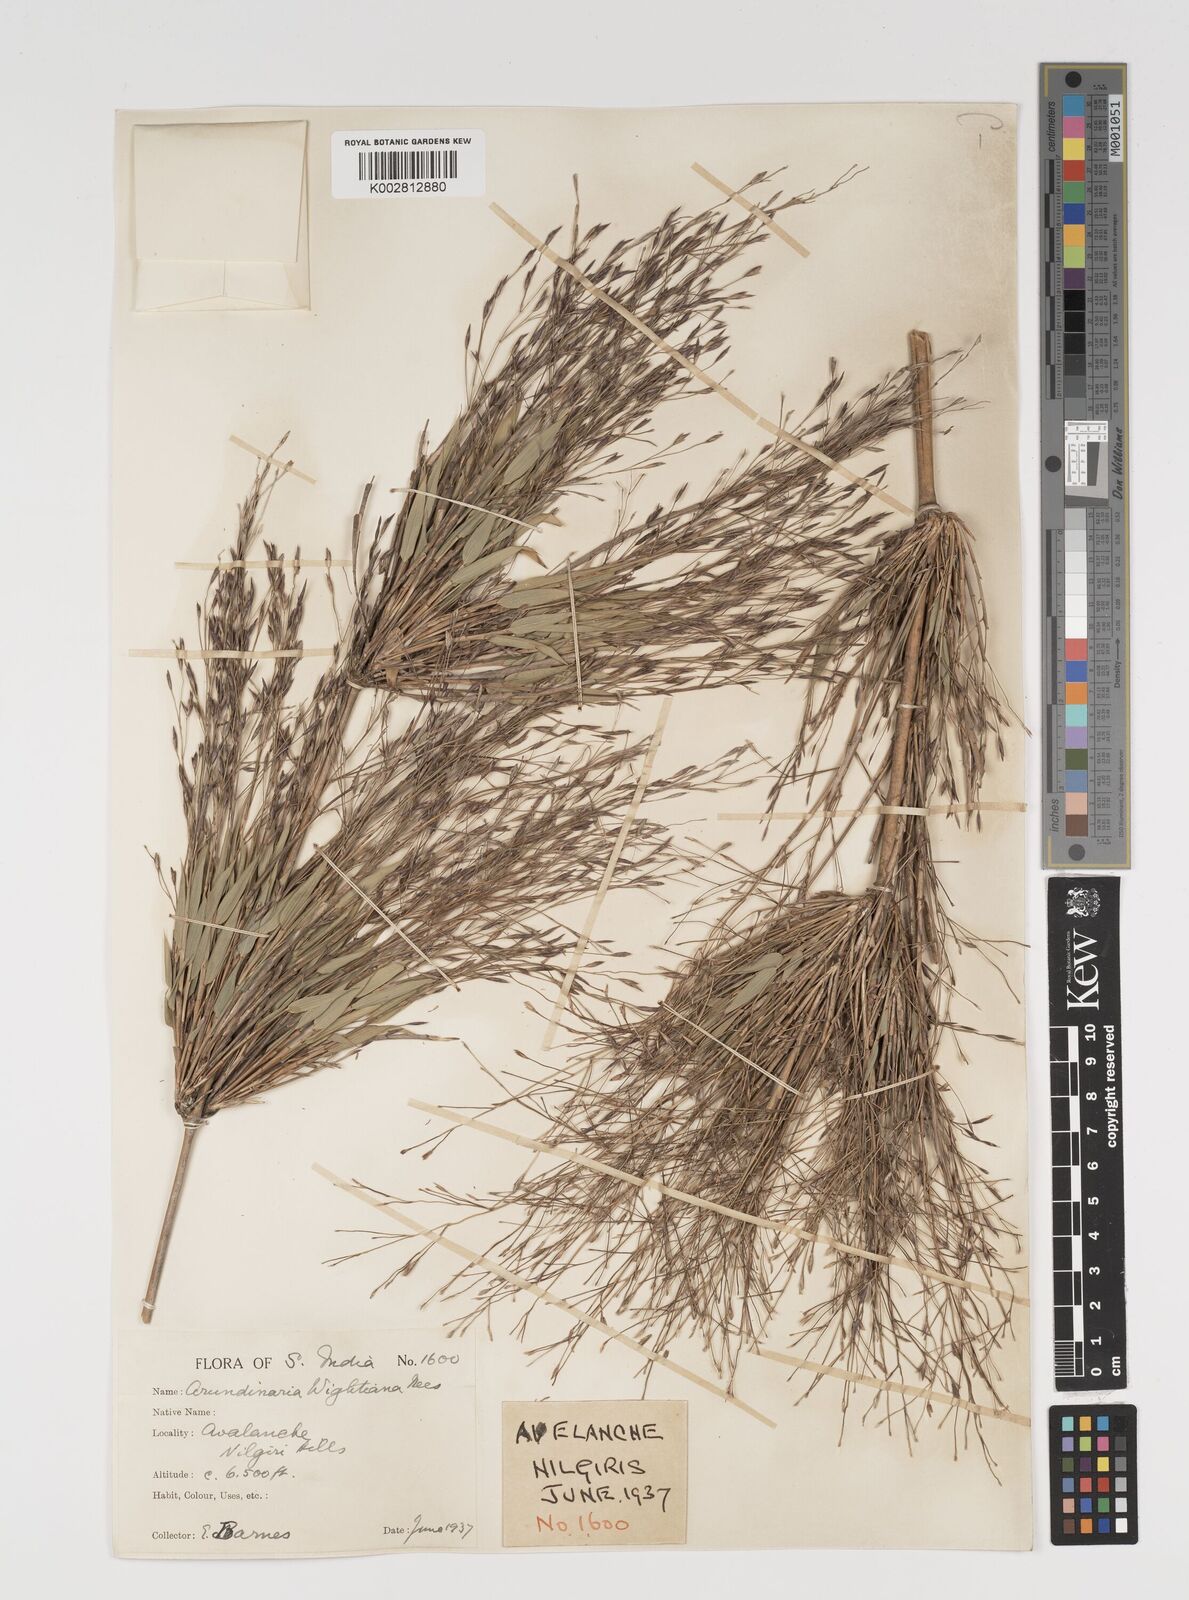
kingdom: Plantae
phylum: Tracheophyta
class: Liliopsida
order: Poales
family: Poaceae
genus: Kuruna
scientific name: Kuruna wightiana
